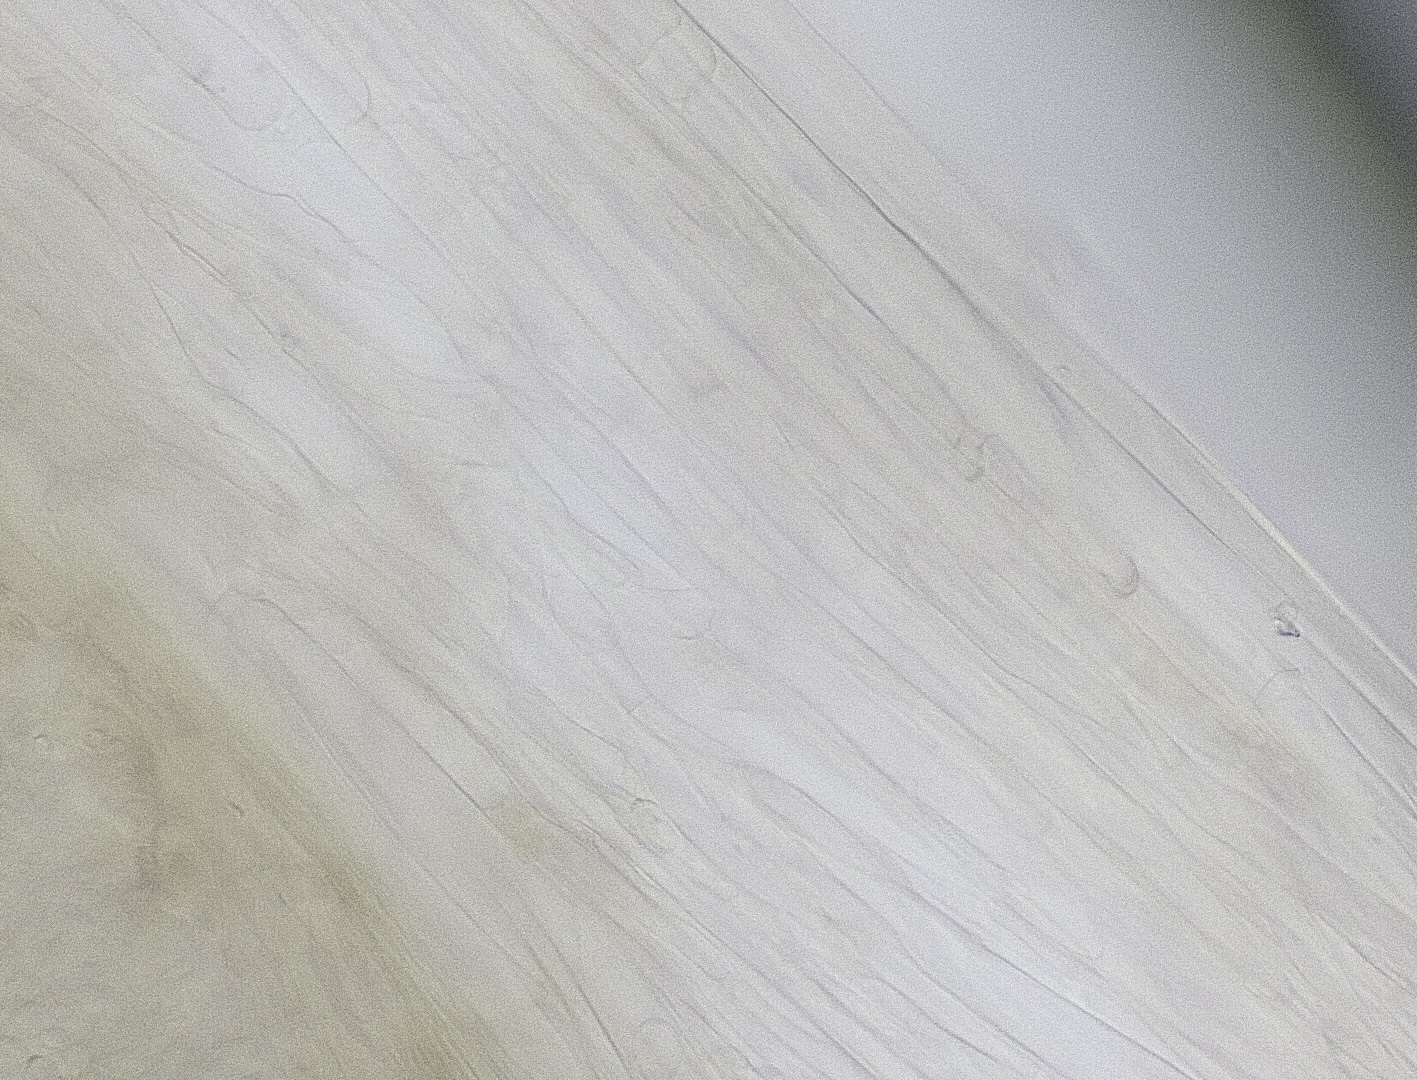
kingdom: Fungi
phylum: Basidiomycota
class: Agaricomycetes
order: Agaricales
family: Entolomataceae
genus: Entoloma
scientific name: Entoloma
